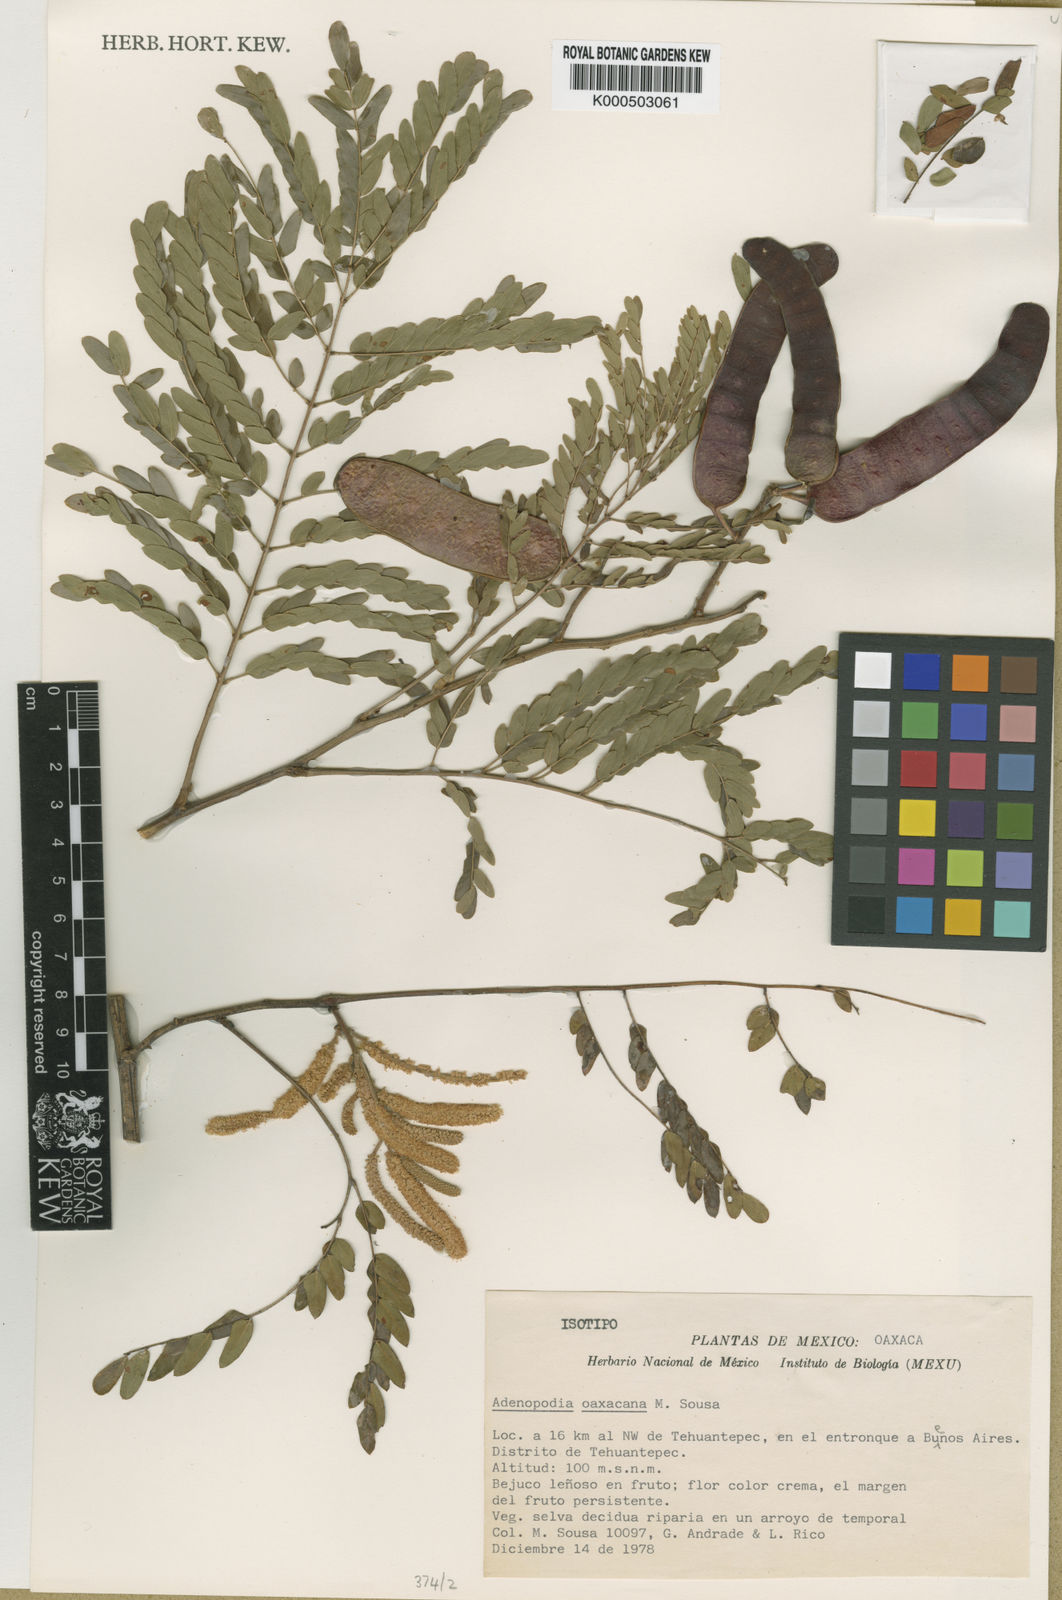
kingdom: Plantae
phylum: Tracheophyta
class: Magnoliopsida
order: Fabales
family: Fabaceae
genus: Adenopodia
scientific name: Adenopodia oaxacana
